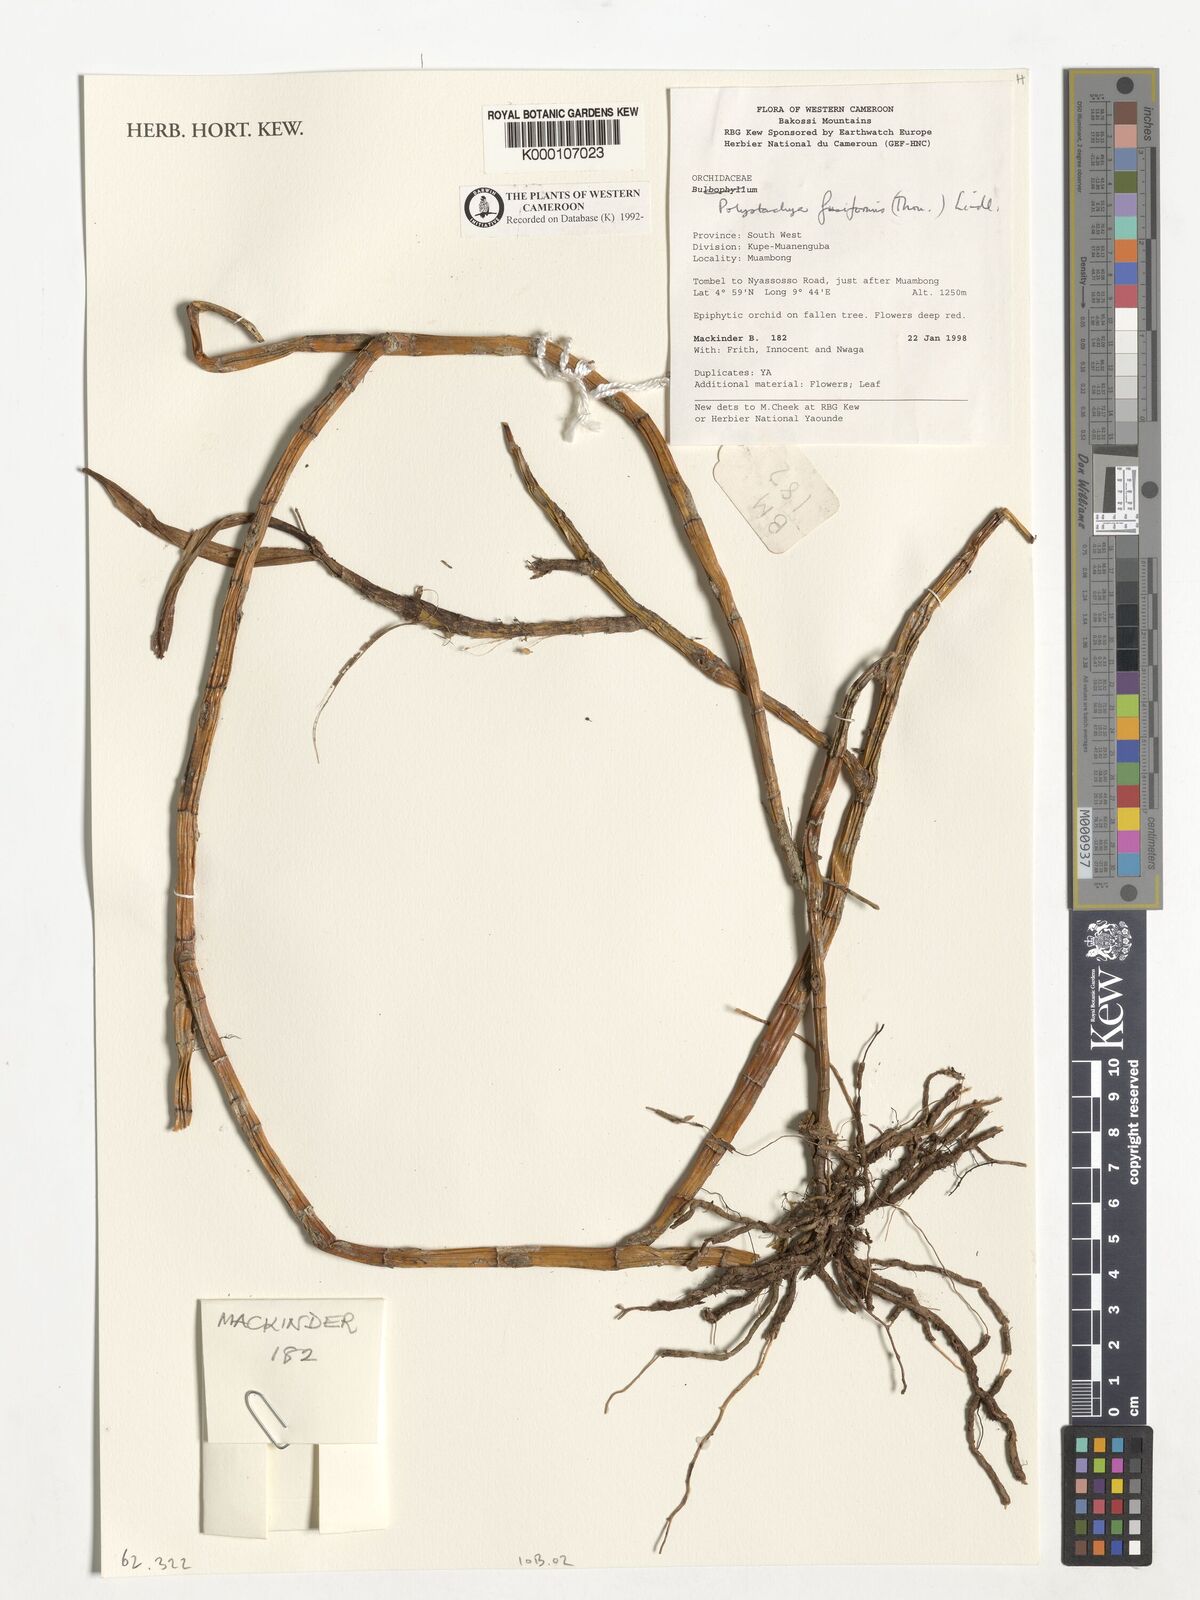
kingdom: Plantae
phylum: Tracheophyta
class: Liliopsida
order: Asparagales
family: Orchidaceae
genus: Polystachya
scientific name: Polystachya fusiformis
